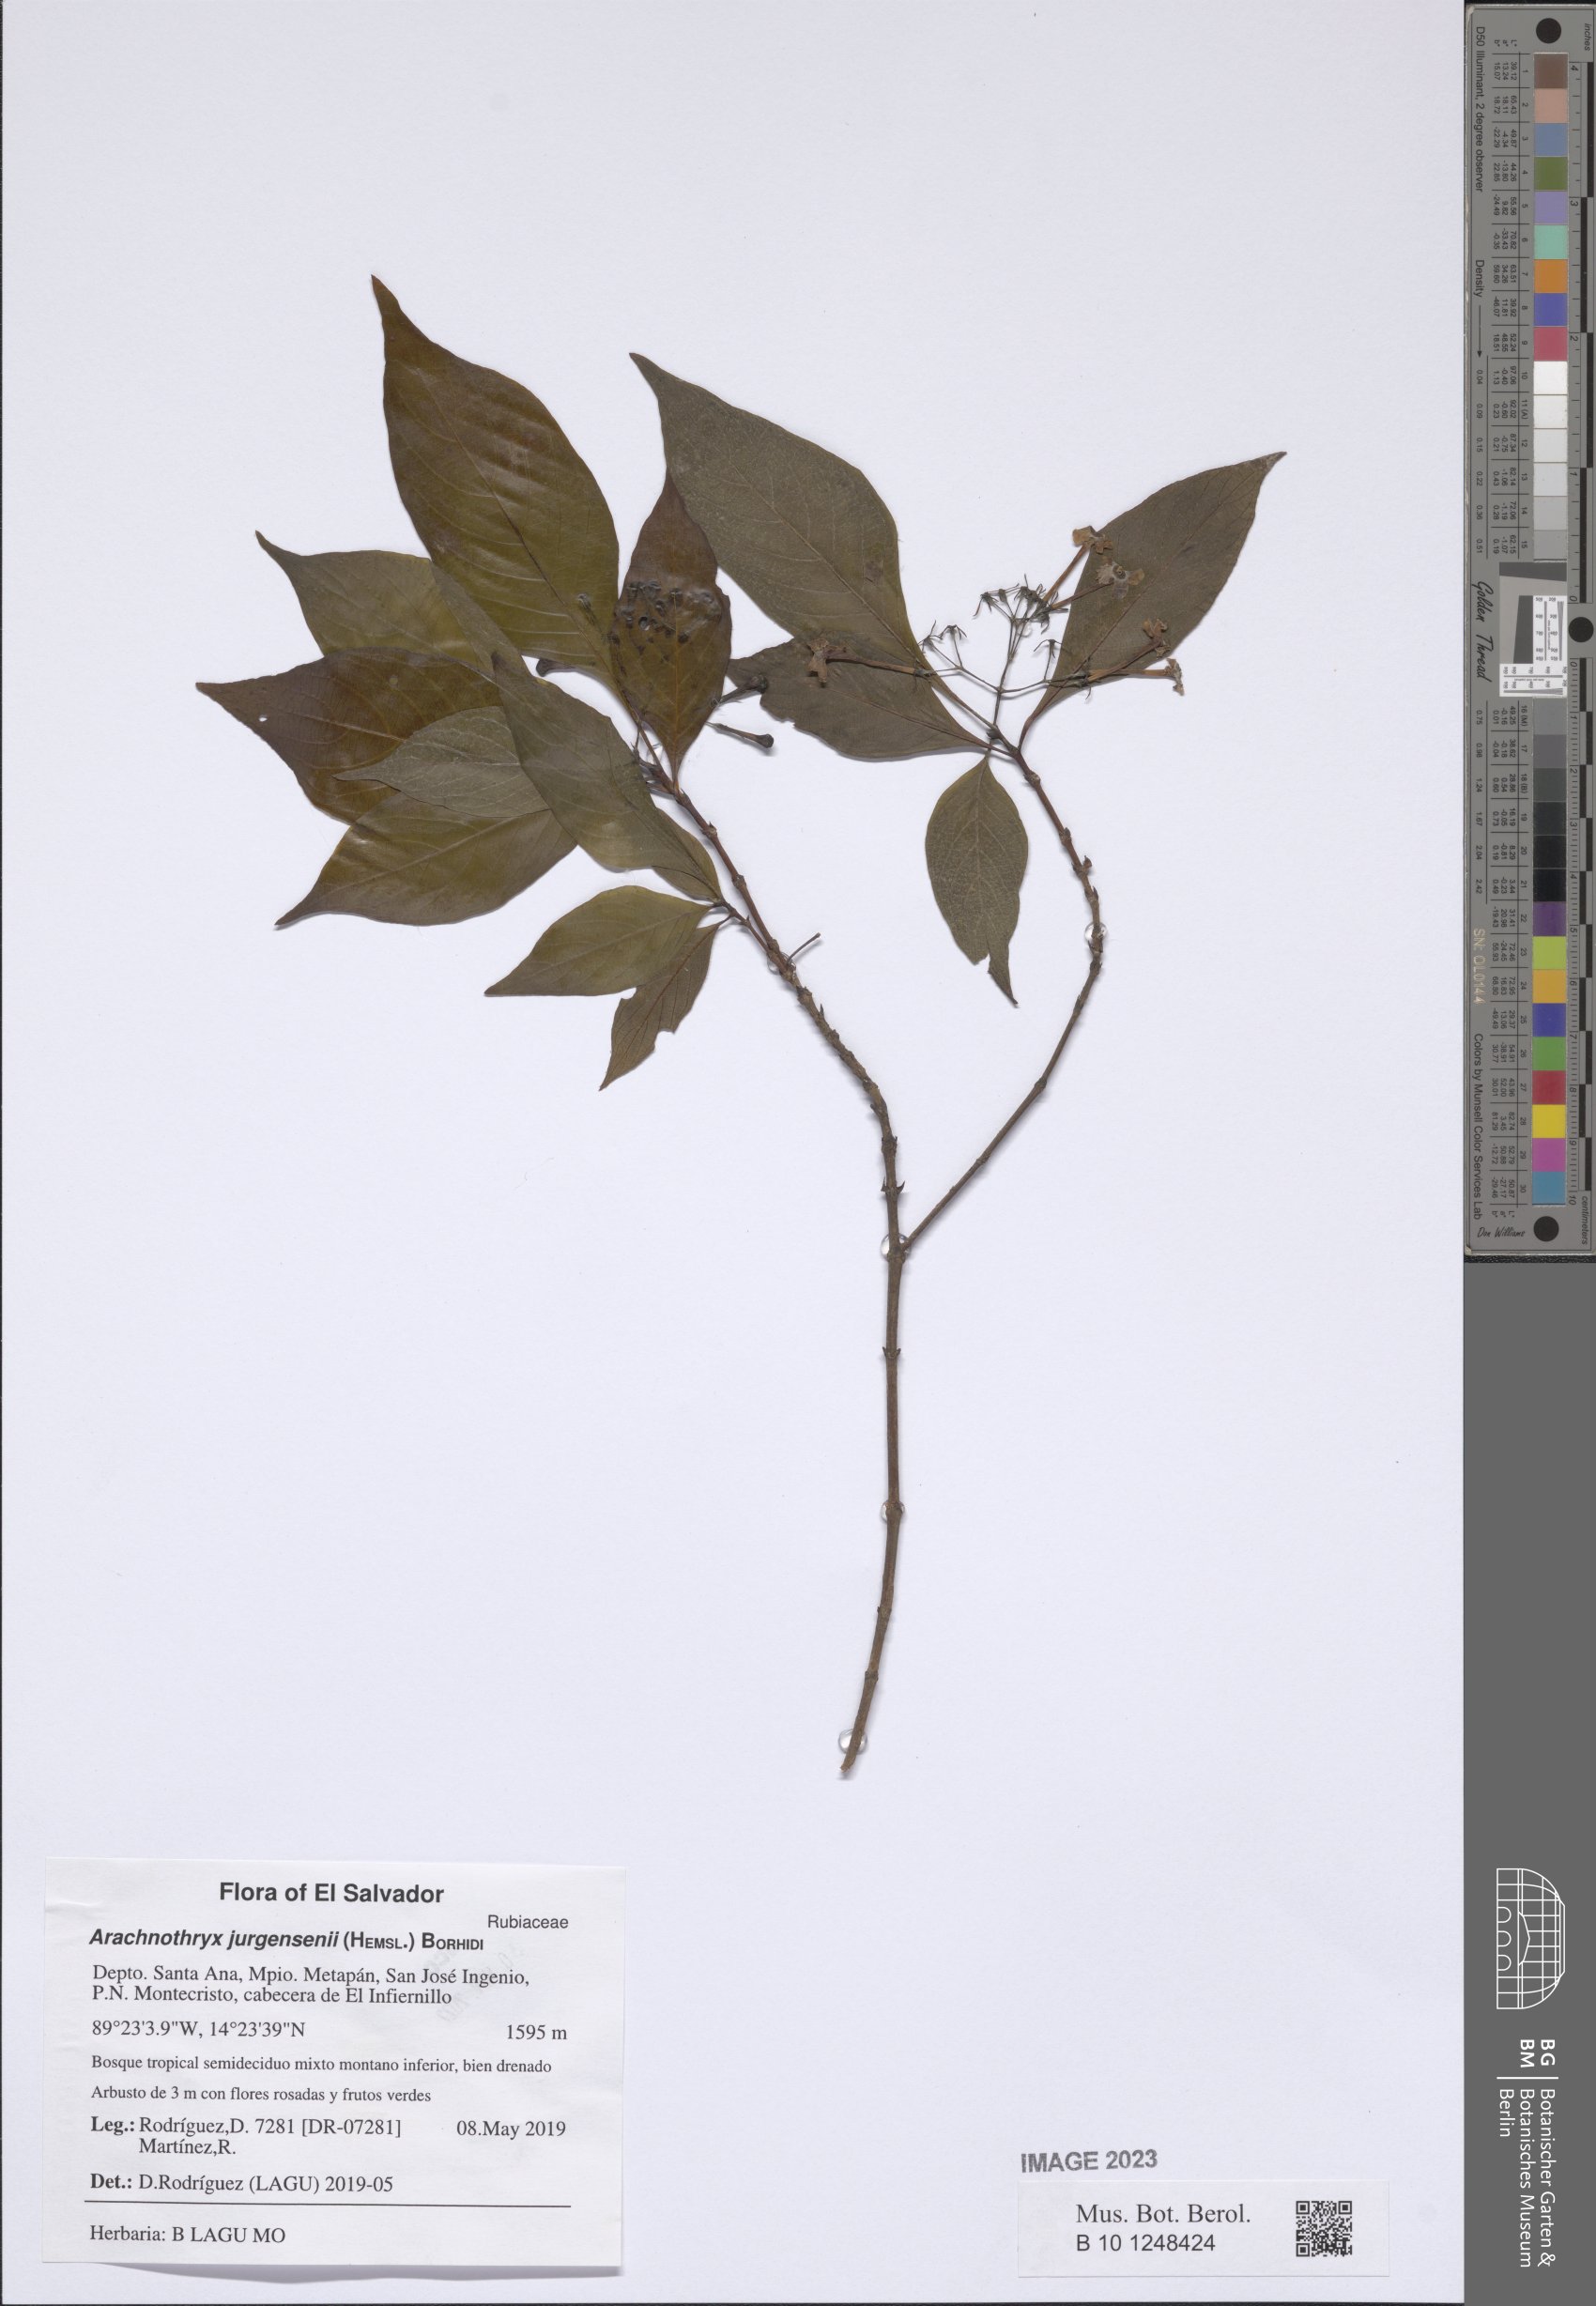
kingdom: Plantae
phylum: Tracheophyta
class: Magnoliopsida
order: Gentianales
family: Rubiaceae
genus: Arachnothryx
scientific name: Arachnothryx jurgensenii
